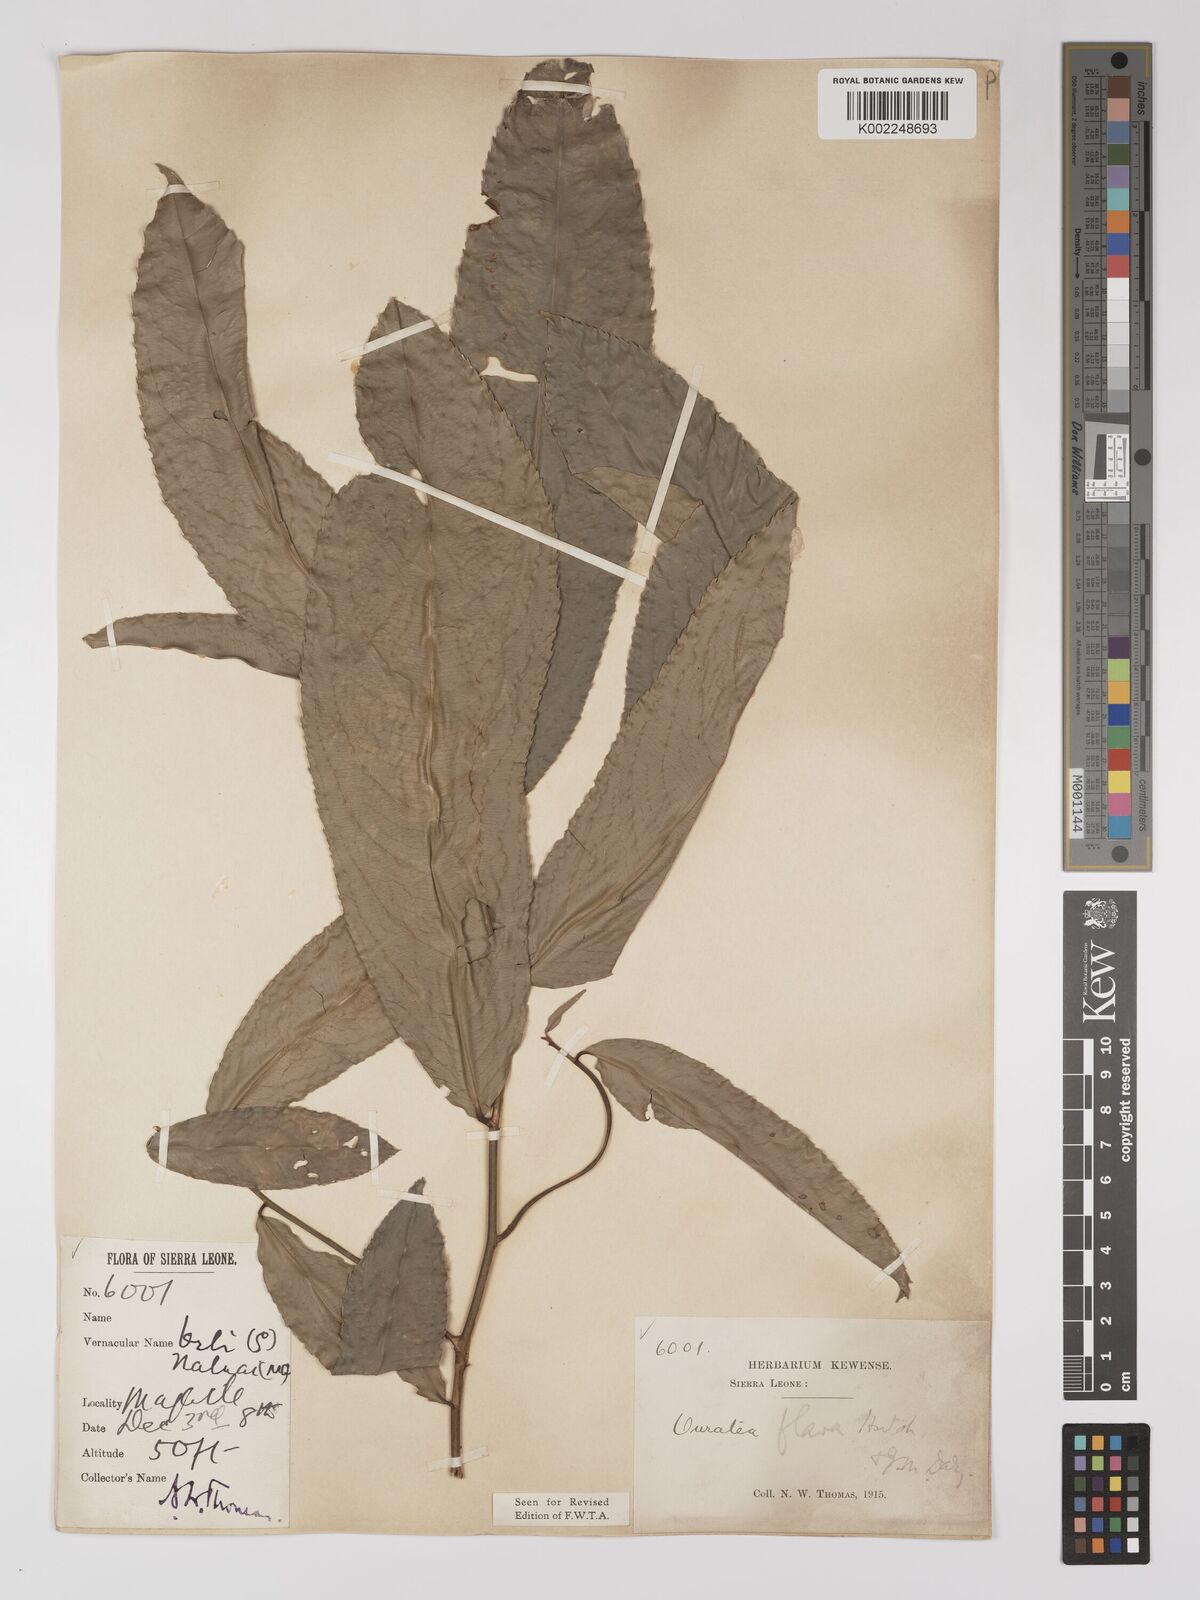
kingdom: Plantae
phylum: Tracheophyta
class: Magnoliopsida
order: Malpighiales
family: Ochnaceae
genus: Campylospermum
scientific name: Campylospermum flavum
